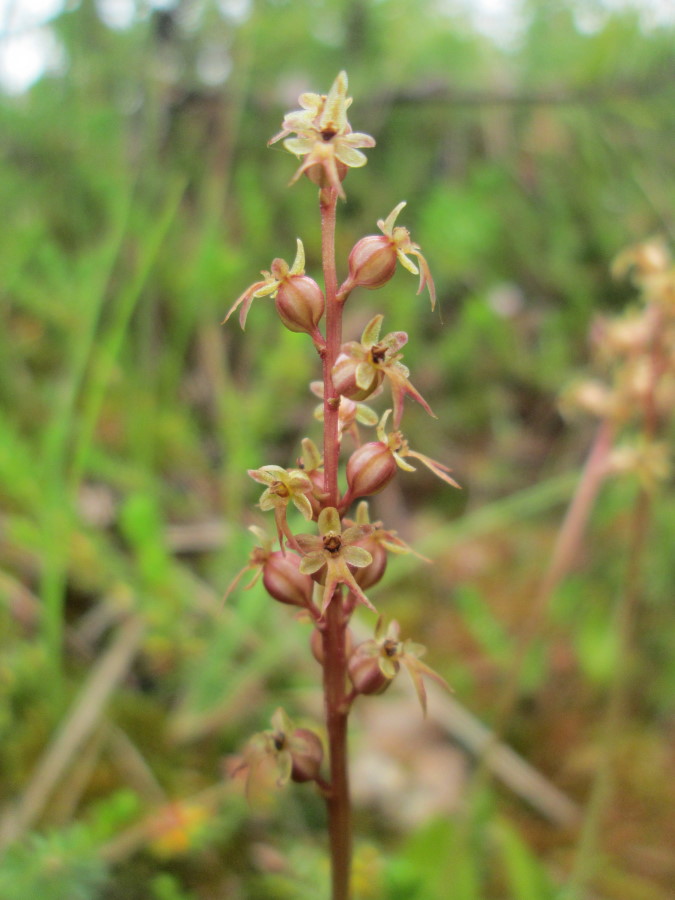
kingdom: Plantae
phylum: Tracheophyta
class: Liliopsida
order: Asparagales
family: Orchidaceae
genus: Neottia
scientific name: Neottia cordata
